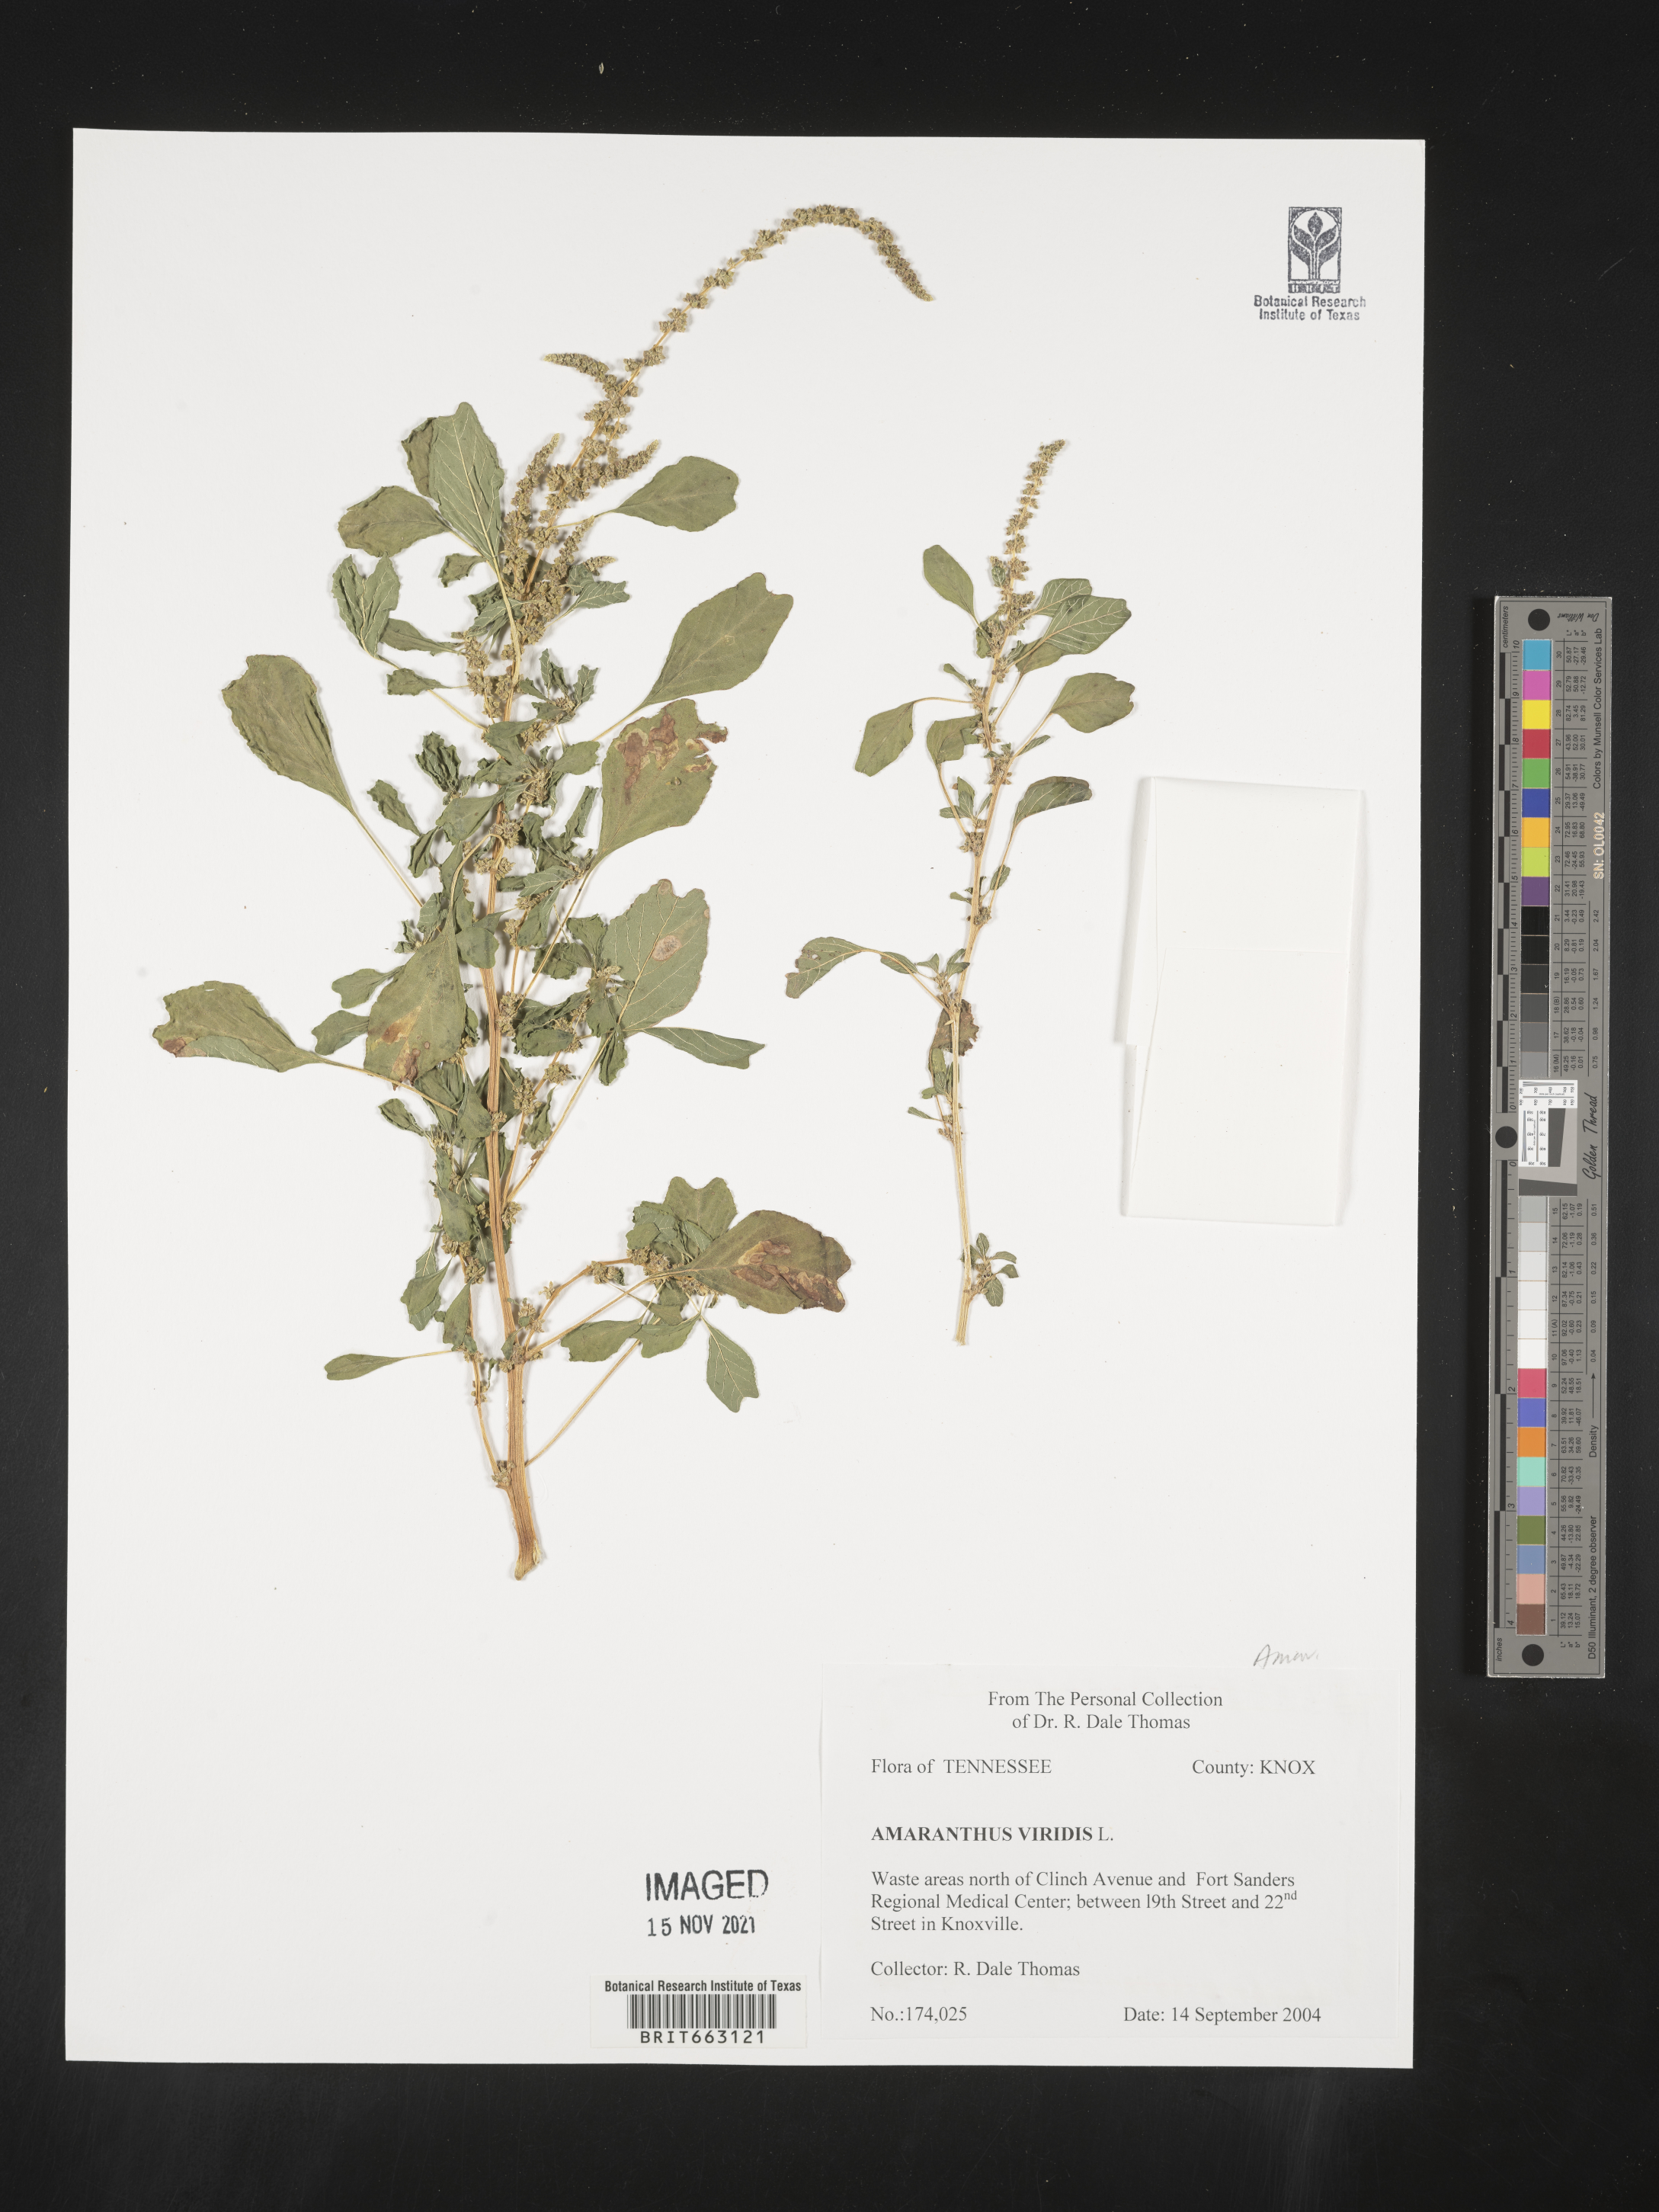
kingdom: Plantae
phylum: Tracheophyta
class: Magnoliopsida
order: Caryophyllales
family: Amaranthaceae
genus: Amaranthus
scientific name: Amaranthus viridis
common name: Slender amaranth
